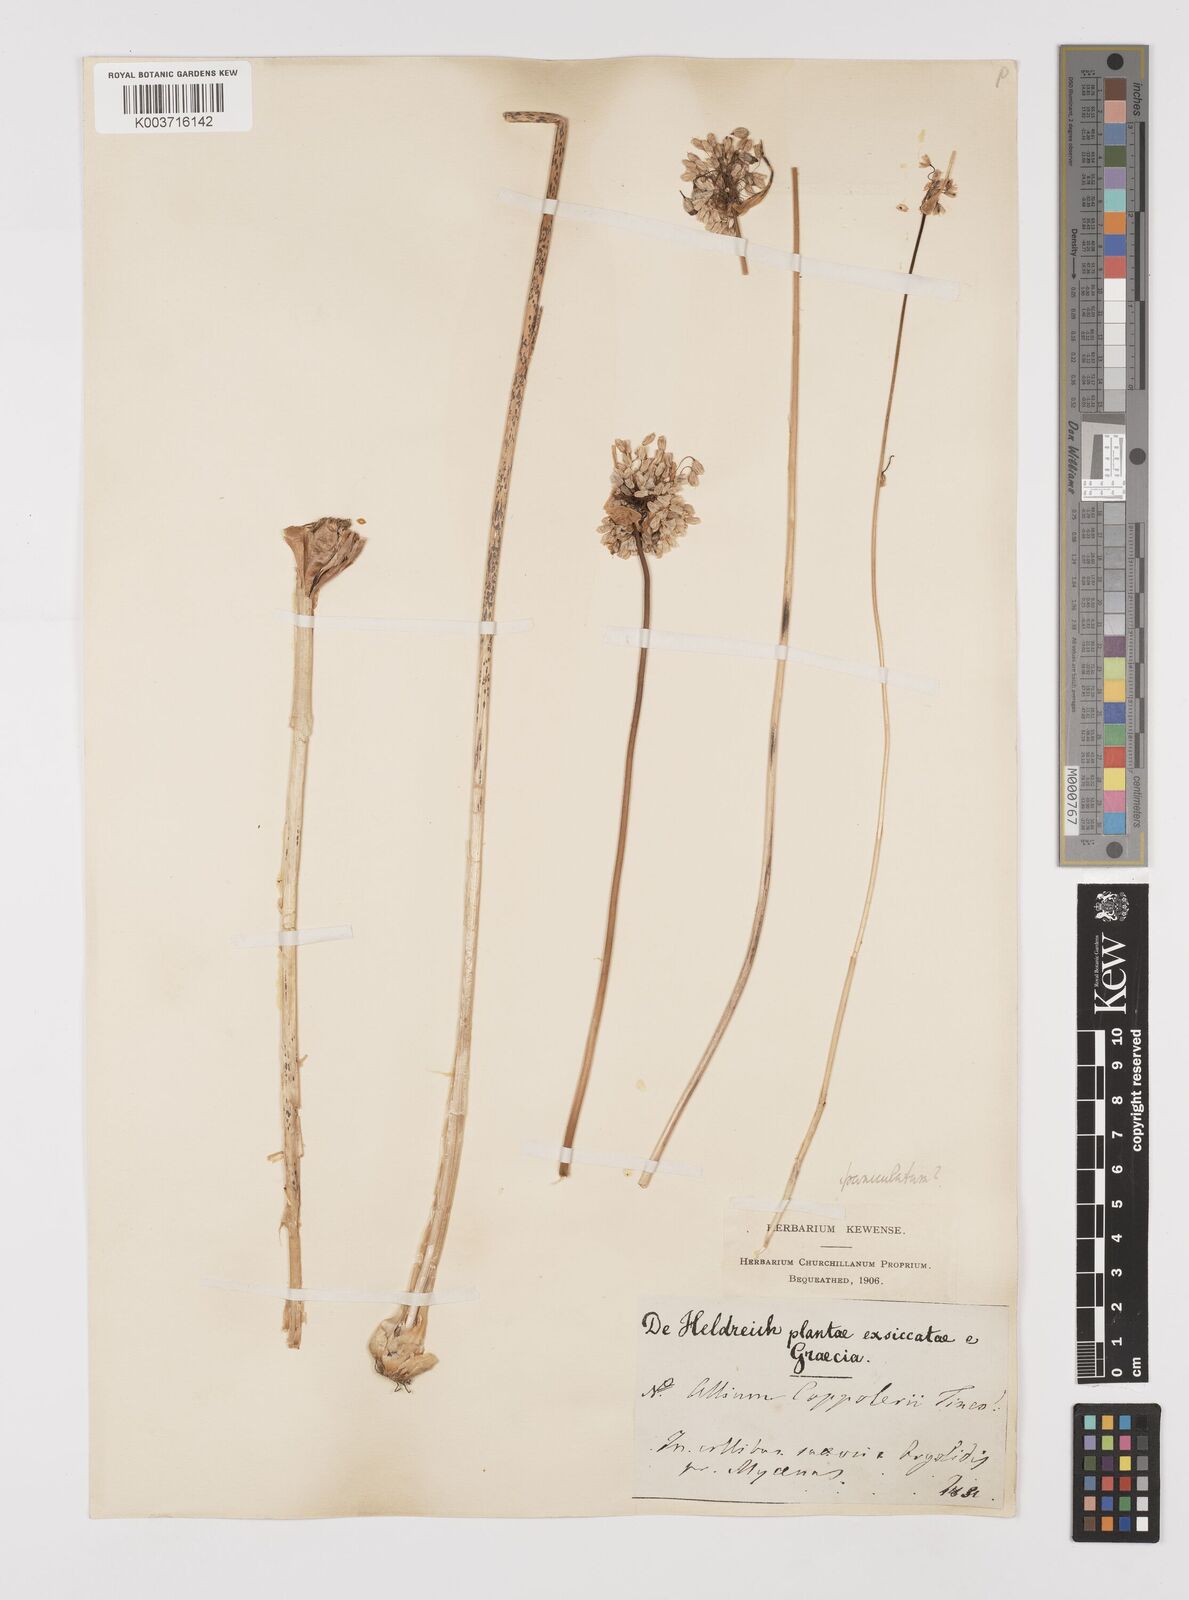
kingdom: Plantae
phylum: Tracheophyta
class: Liliopsida
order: Asparagales
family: Amaryllidaceae
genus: Allium
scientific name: Allium pallens
